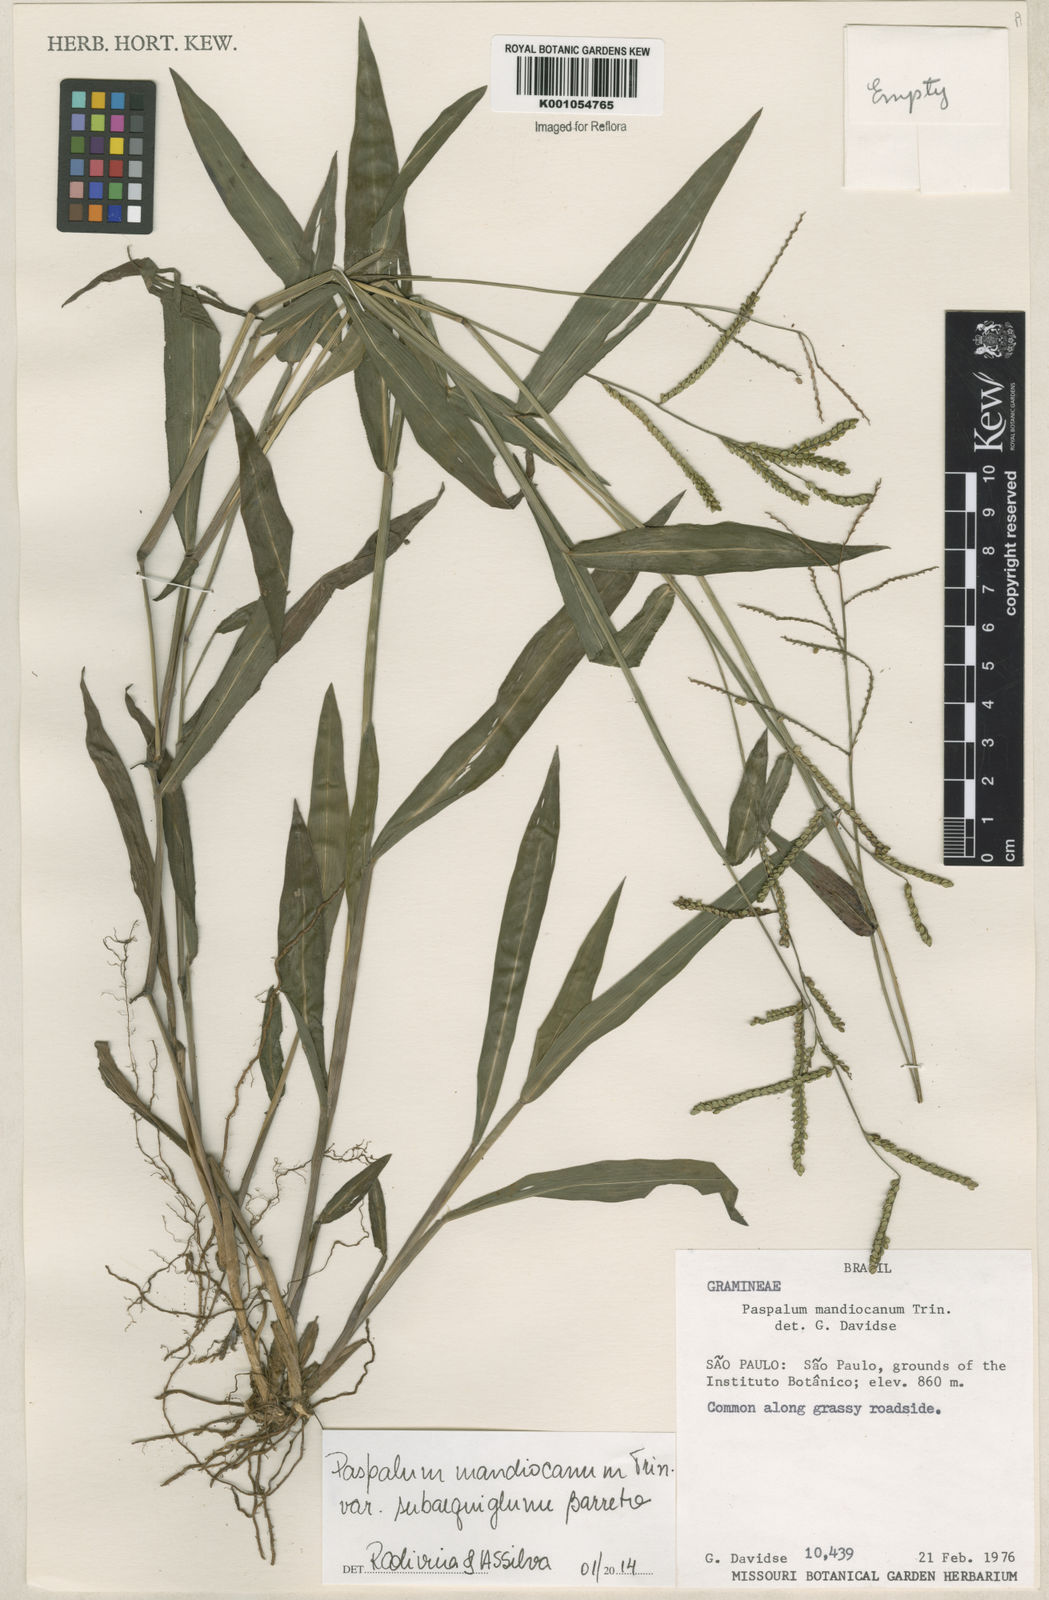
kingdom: Plantae
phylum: Tracheophyta
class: Liliopsida
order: Poales
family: Poaceae
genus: Paspalum
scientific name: Paspalum mandiocanum
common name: Paspalum
